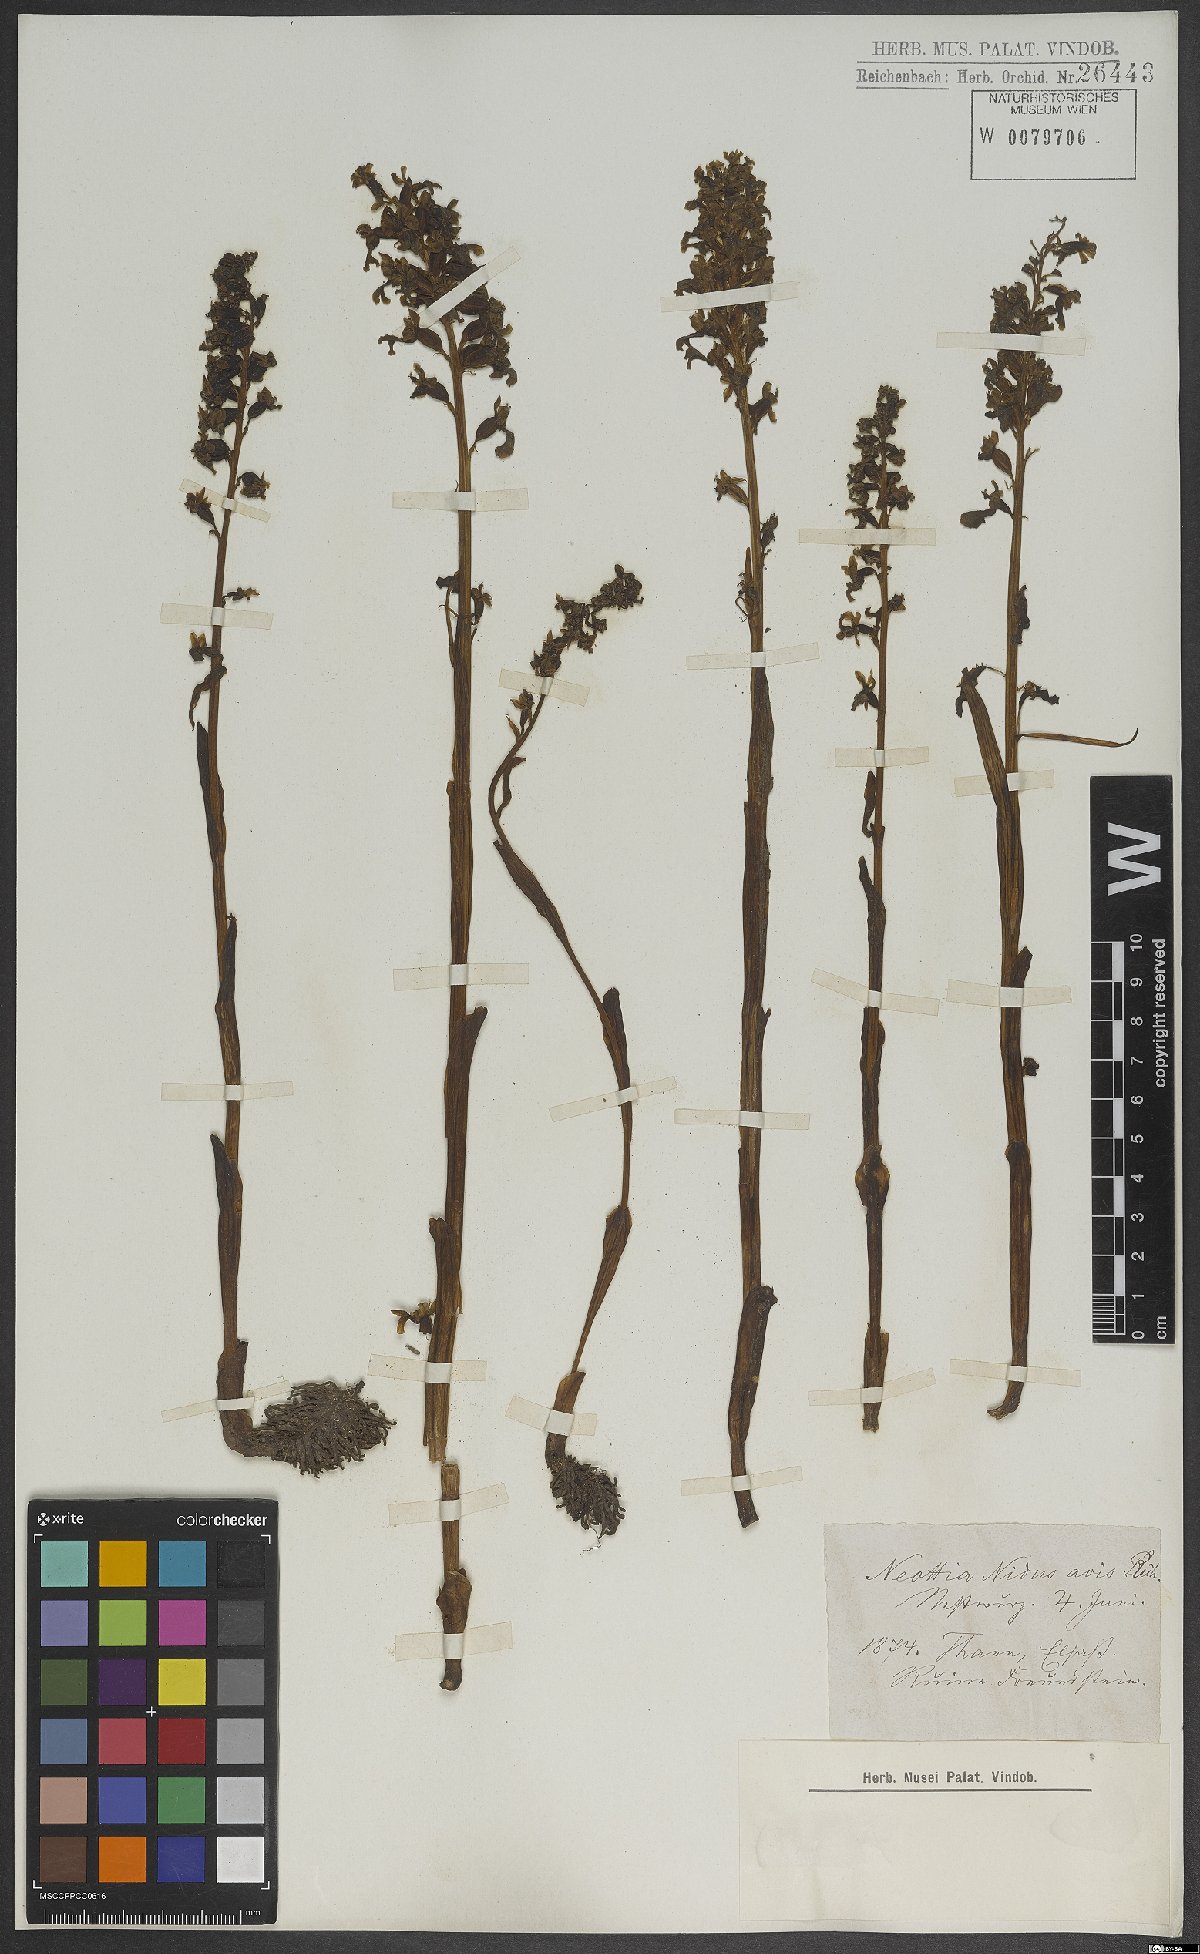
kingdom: Plantae
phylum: Tracheophyta
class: Liliopsida
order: Asparagales
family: Orchidaceae
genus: Neottia
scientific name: Neottia nidus-avis
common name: Bird's-nest orchid
